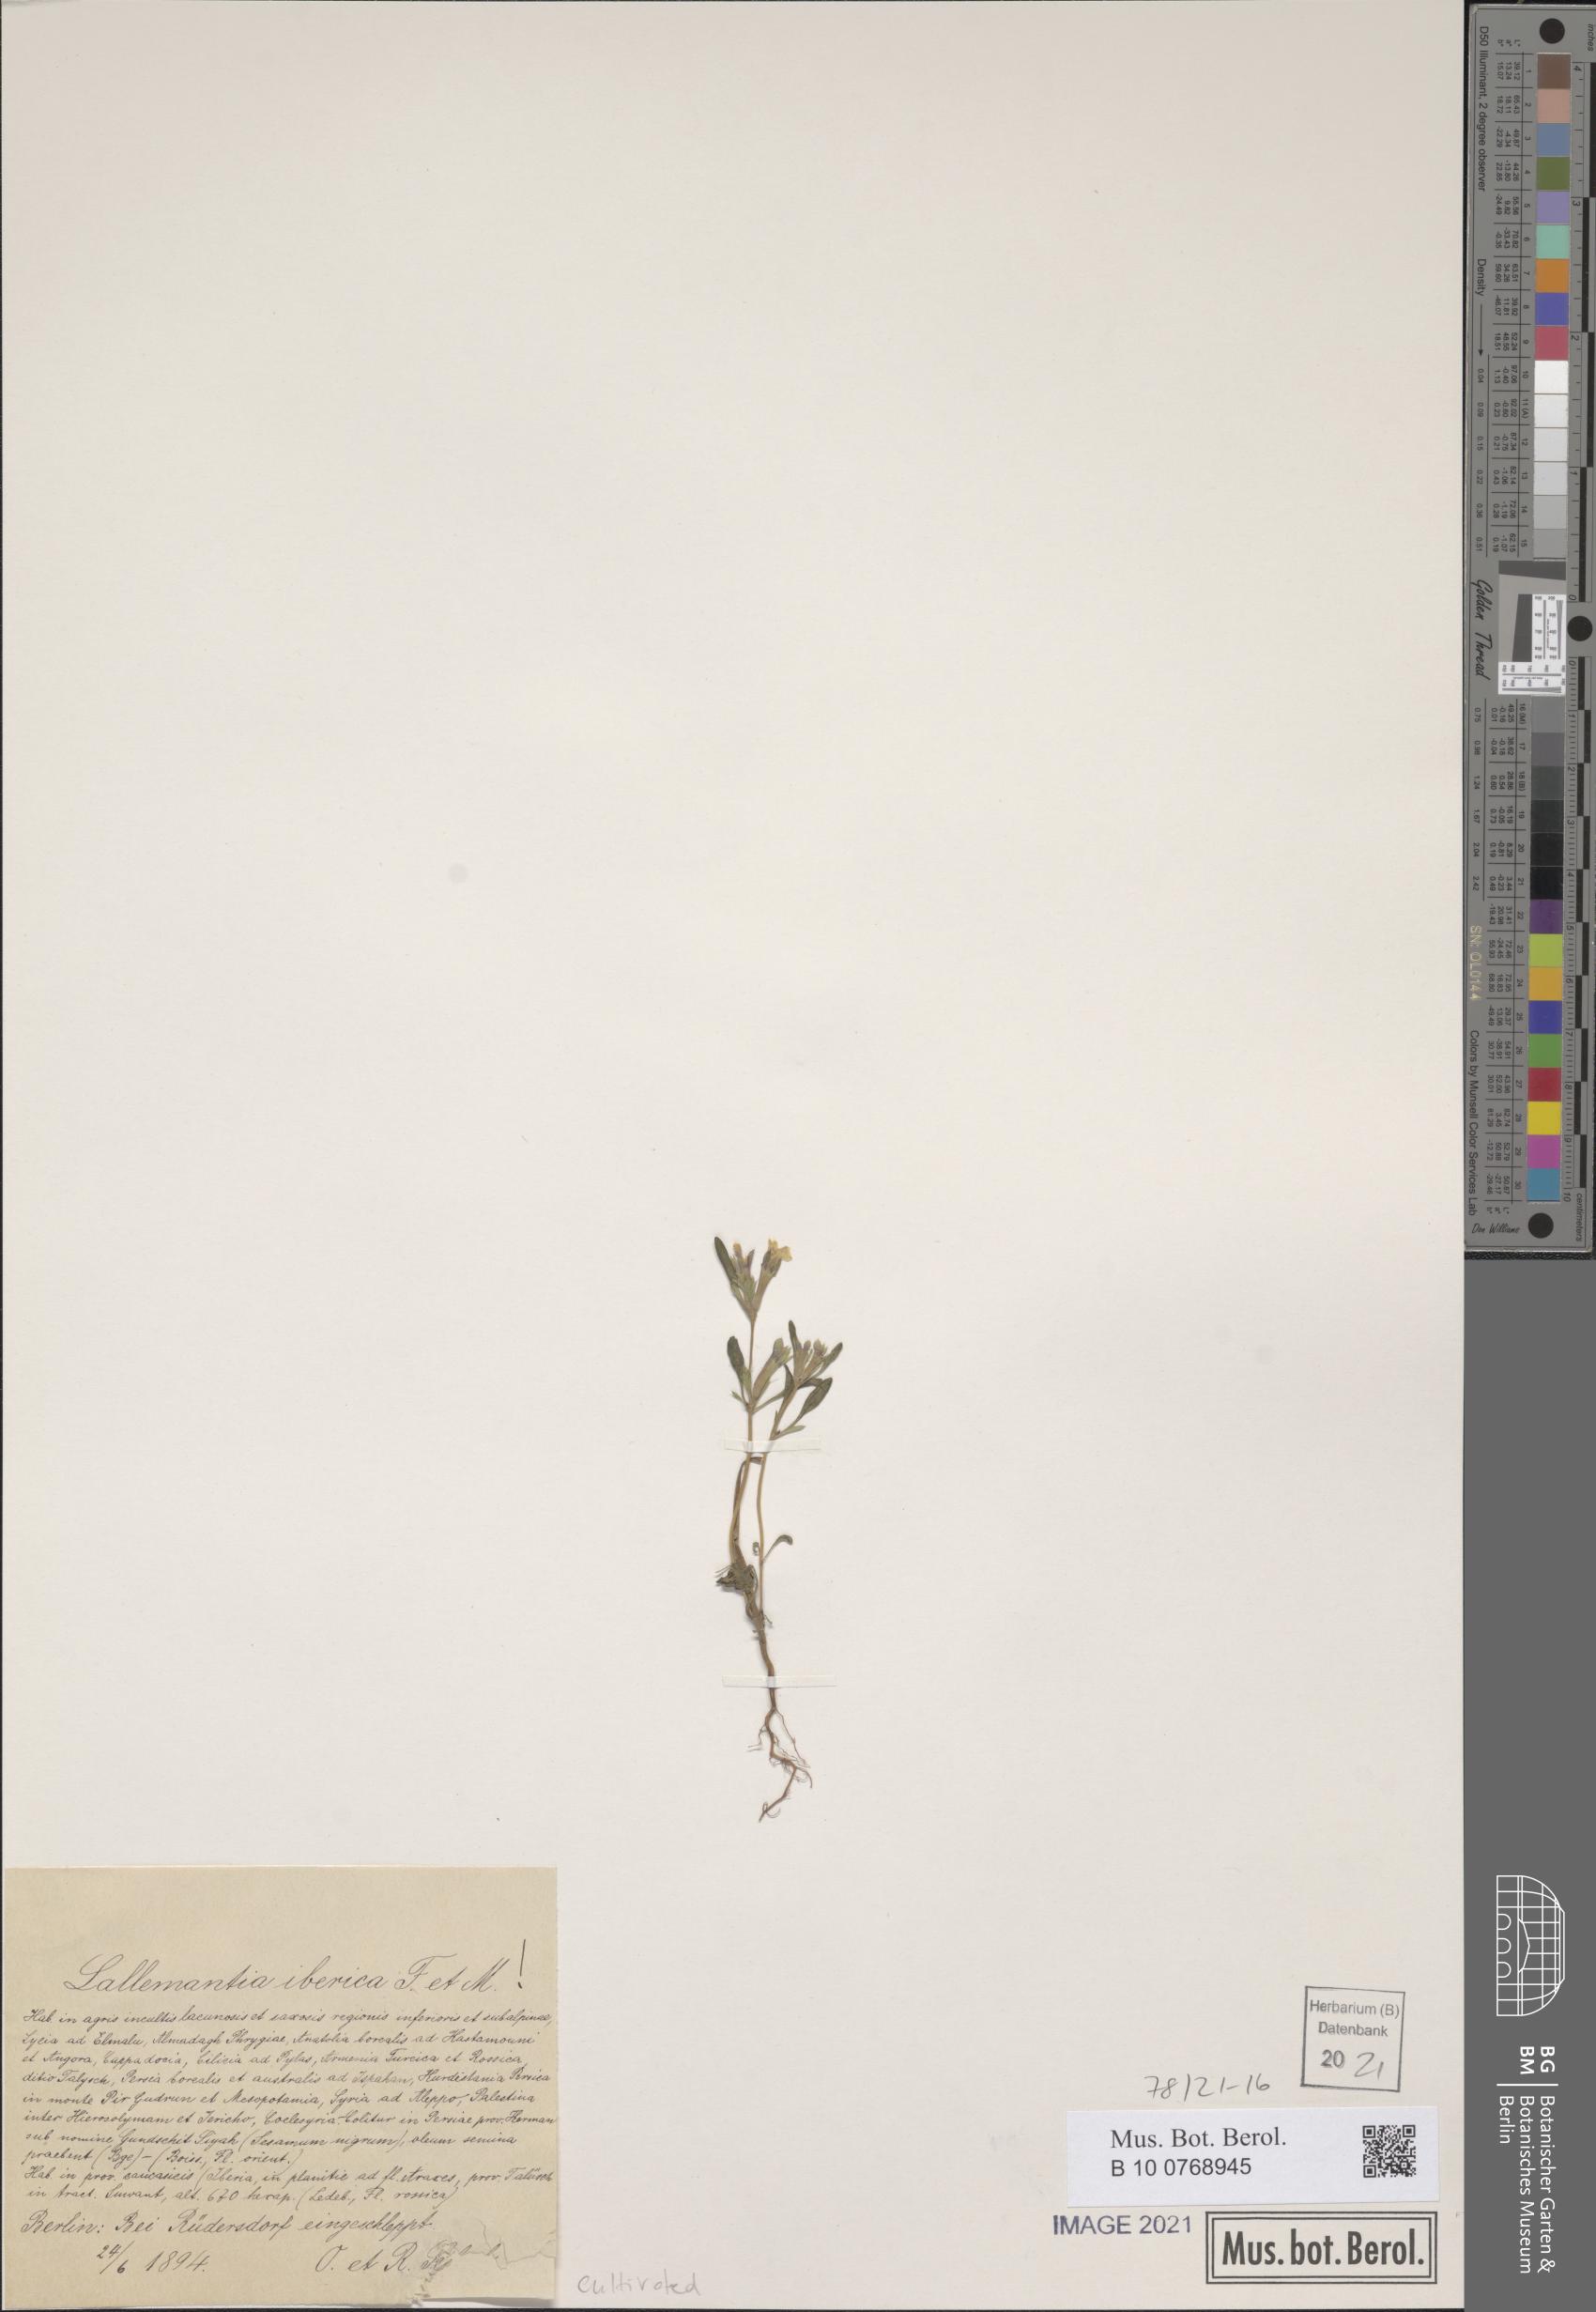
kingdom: Plantae
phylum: Tracheophyta
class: Magnoliopsida
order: Lamiales
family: Lamiaceae
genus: Lallemantia
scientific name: Lallemantia iberica
